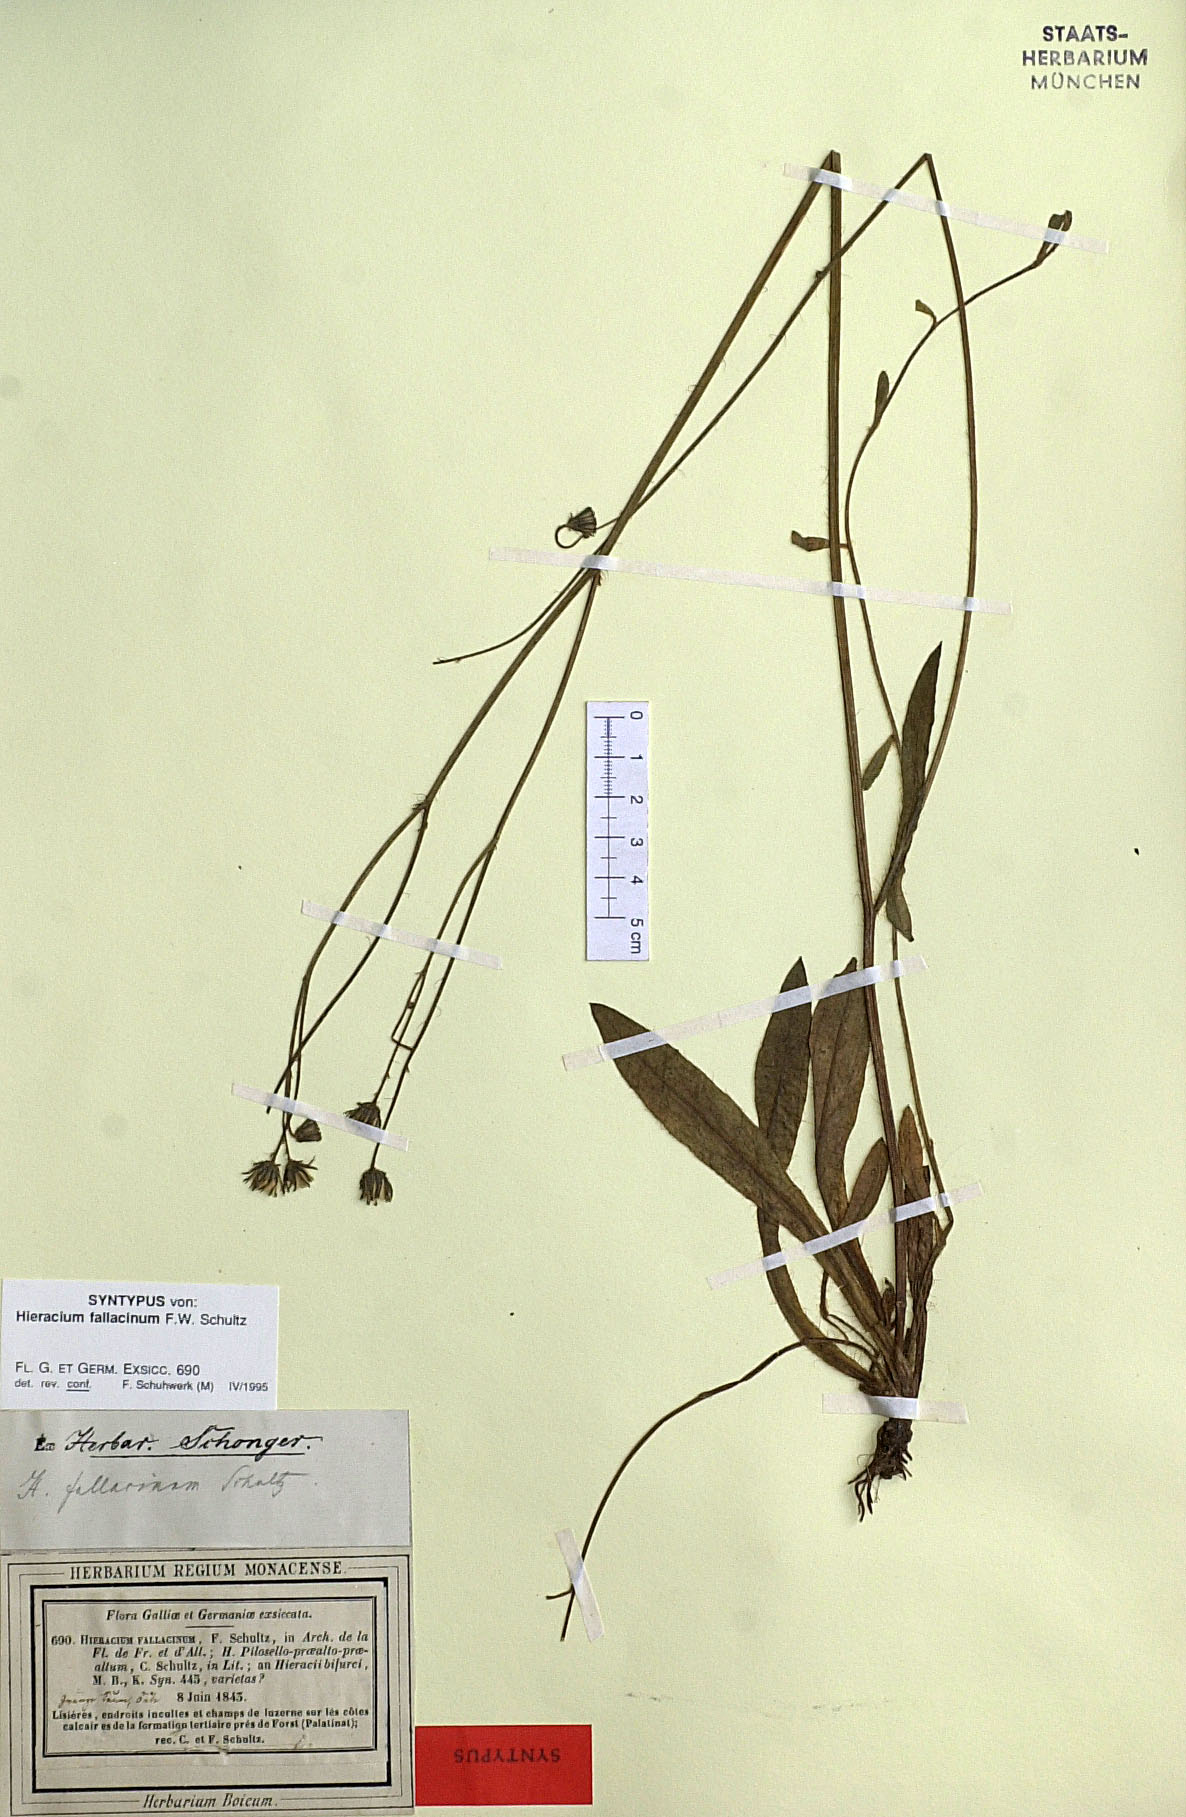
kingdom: Plantae
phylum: Tracheophyta
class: Magnoliopsida
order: Asterales
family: Asteraceae
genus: Pilosella
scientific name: Pilosella fallacina
